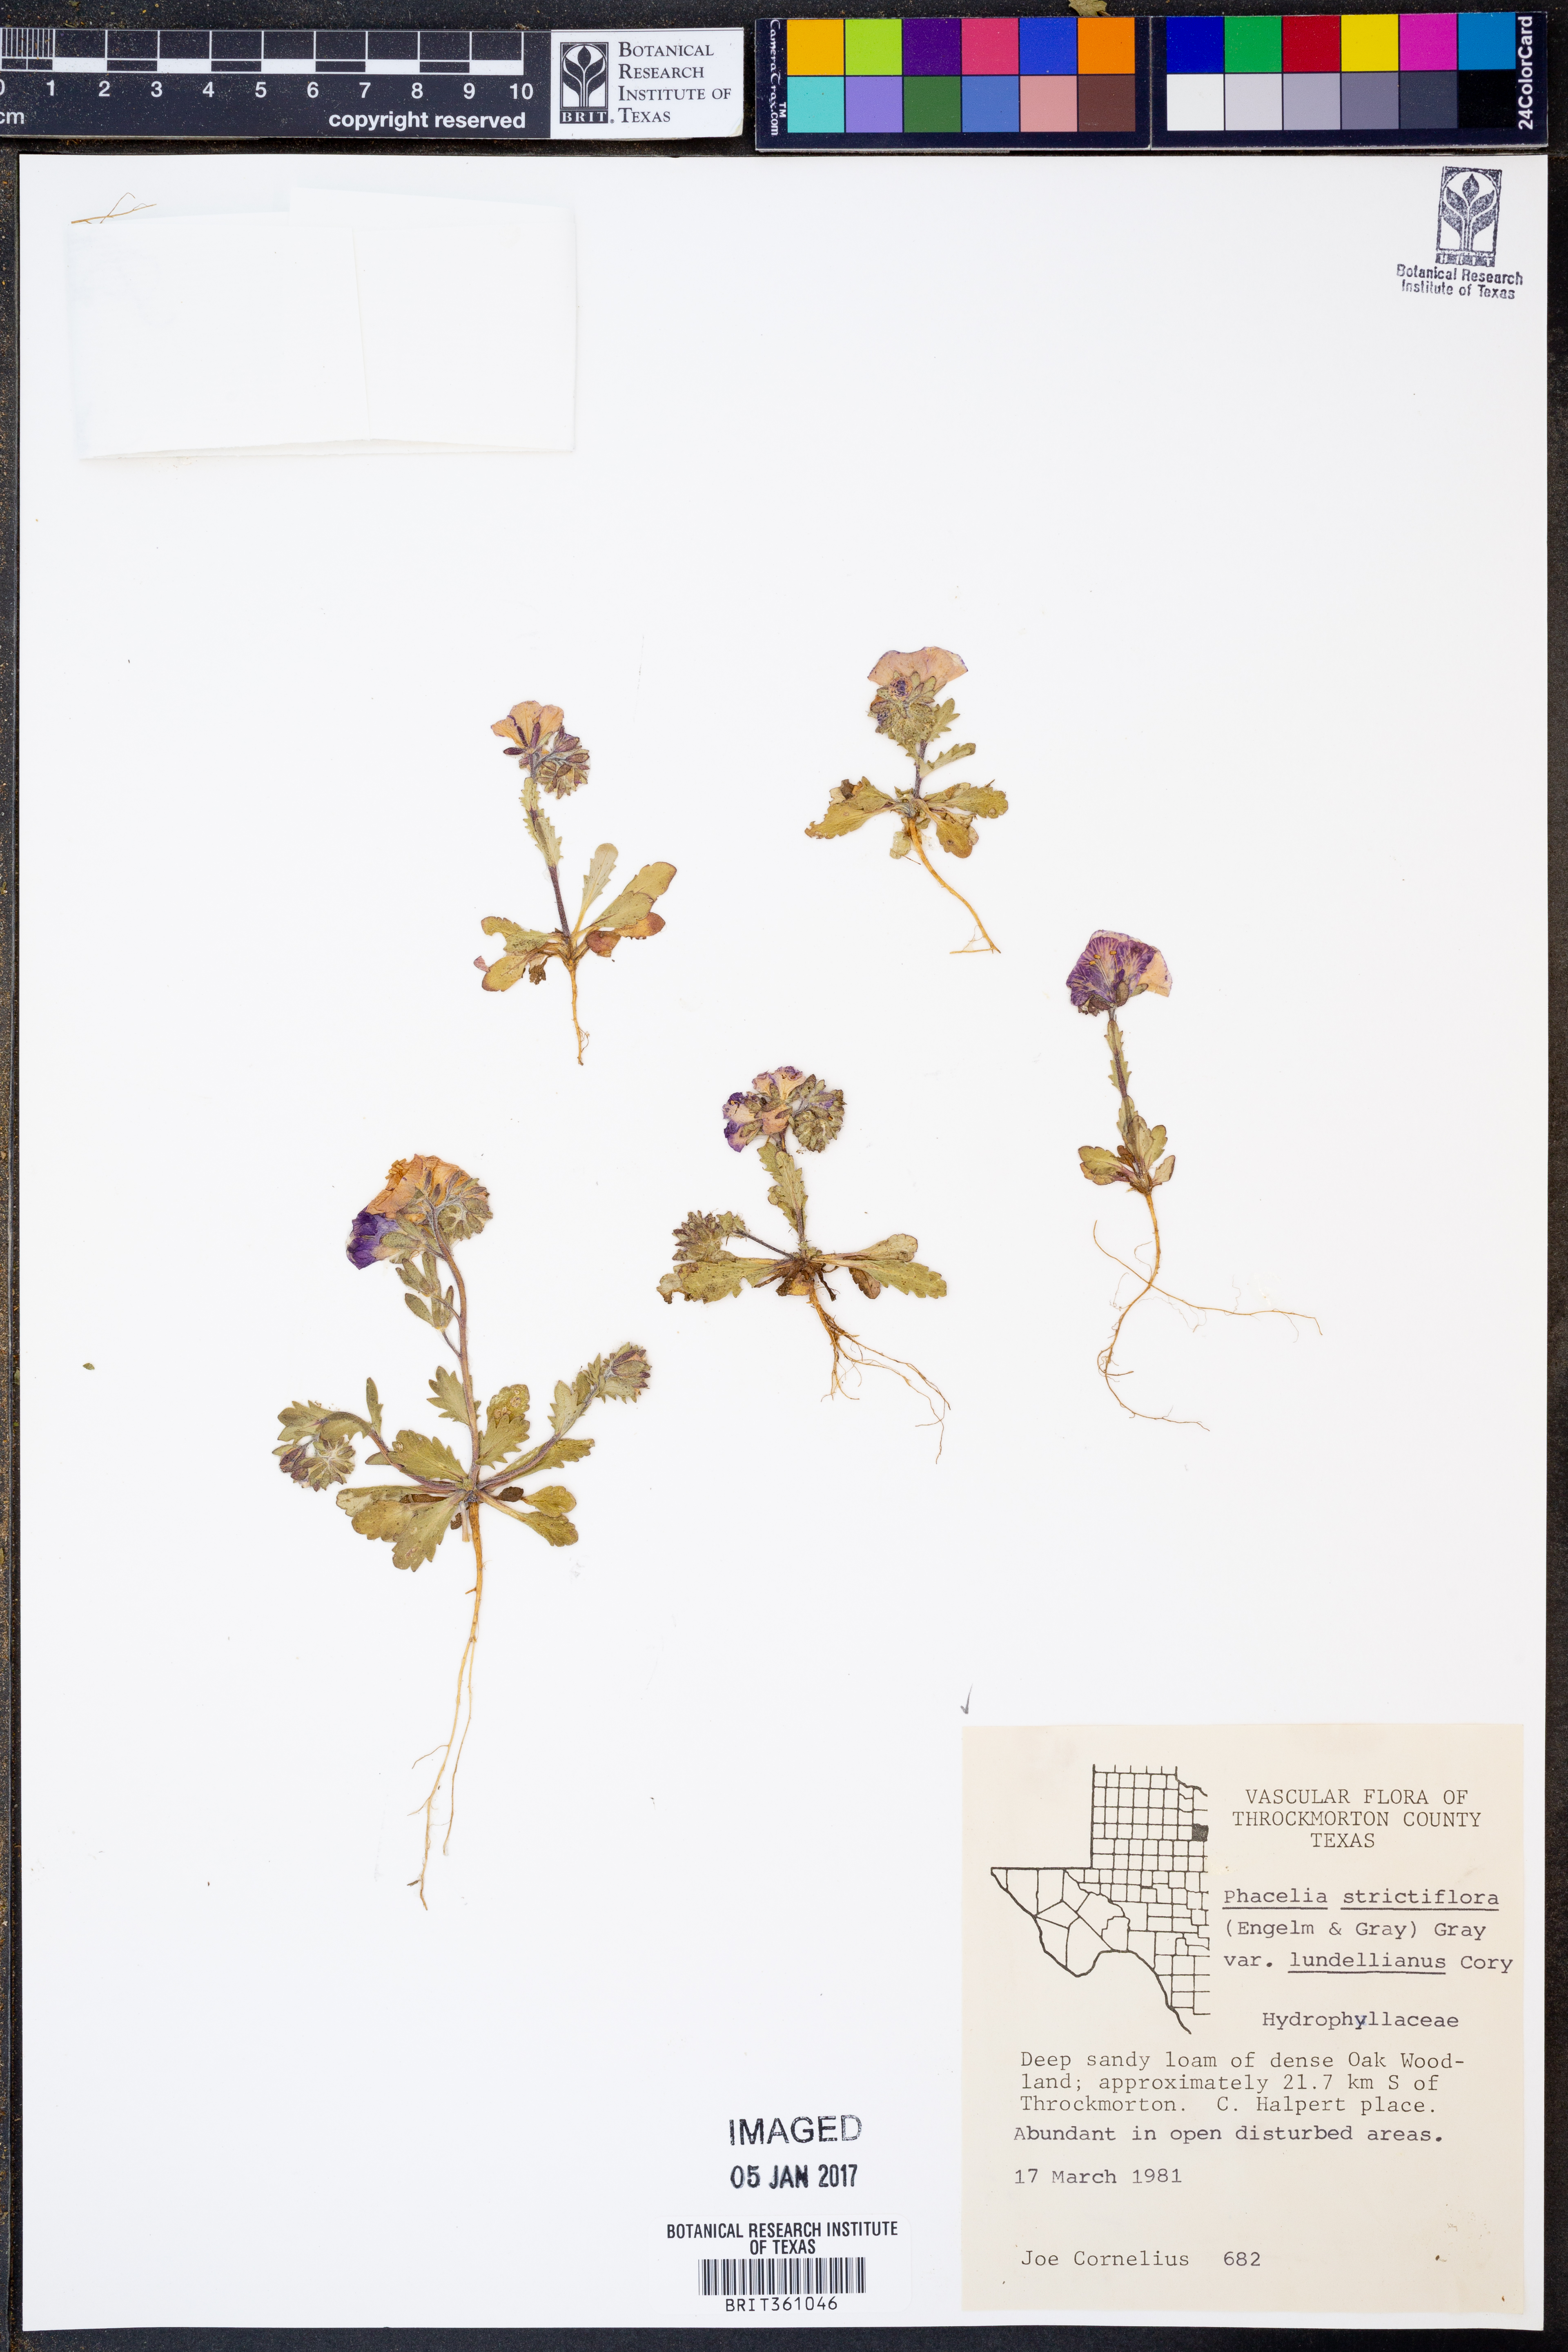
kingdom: Plantae
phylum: Tracheophyta
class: Magnoliopsida
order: Boraginales
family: Hydrophyllaceae
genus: Phacelia
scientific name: Phacelia strictiflora
